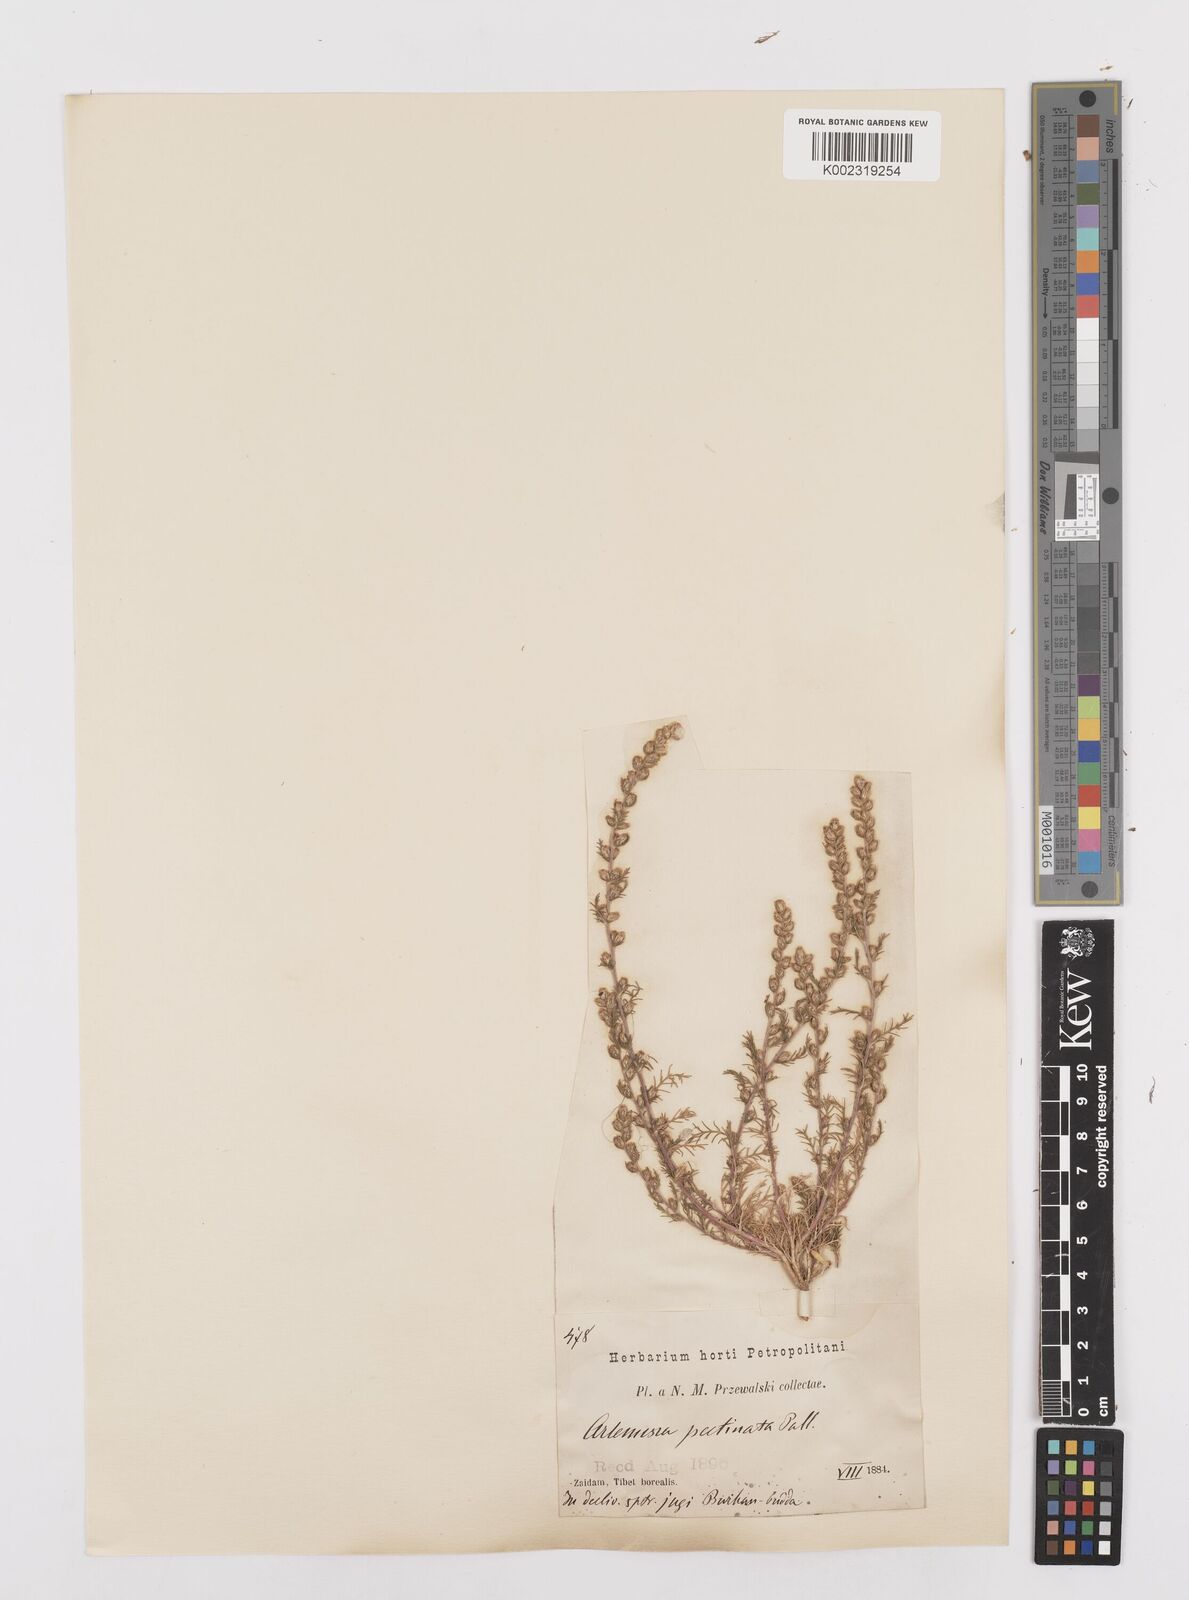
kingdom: Plantae
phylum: Tracheophyta
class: Magnoliopsida
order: Asterales
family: Asteraceae
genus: Neopallasia
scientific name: Neopallasia pectinata
